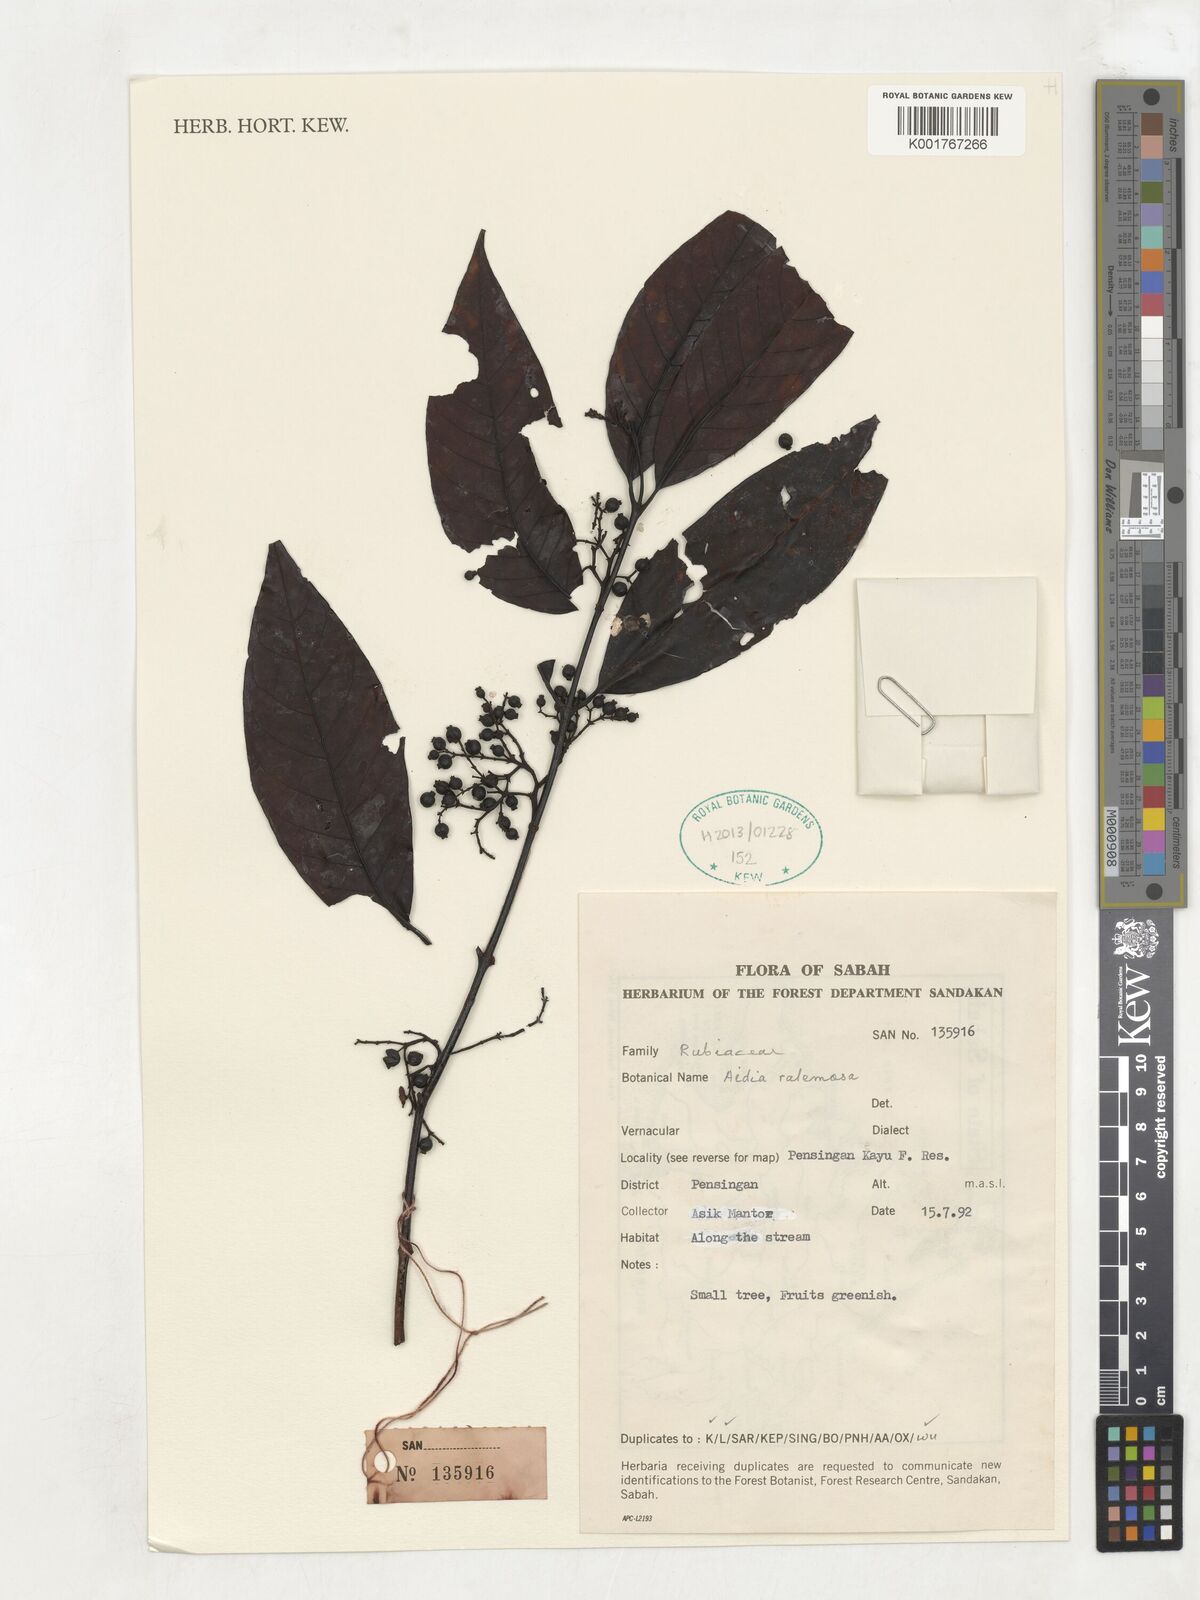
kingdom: Plantae
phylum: Tracheophyta
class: Magnoliopsida
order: Gentianales
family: Rubiaceae
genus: Aidia
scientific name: Aidia racemosa
